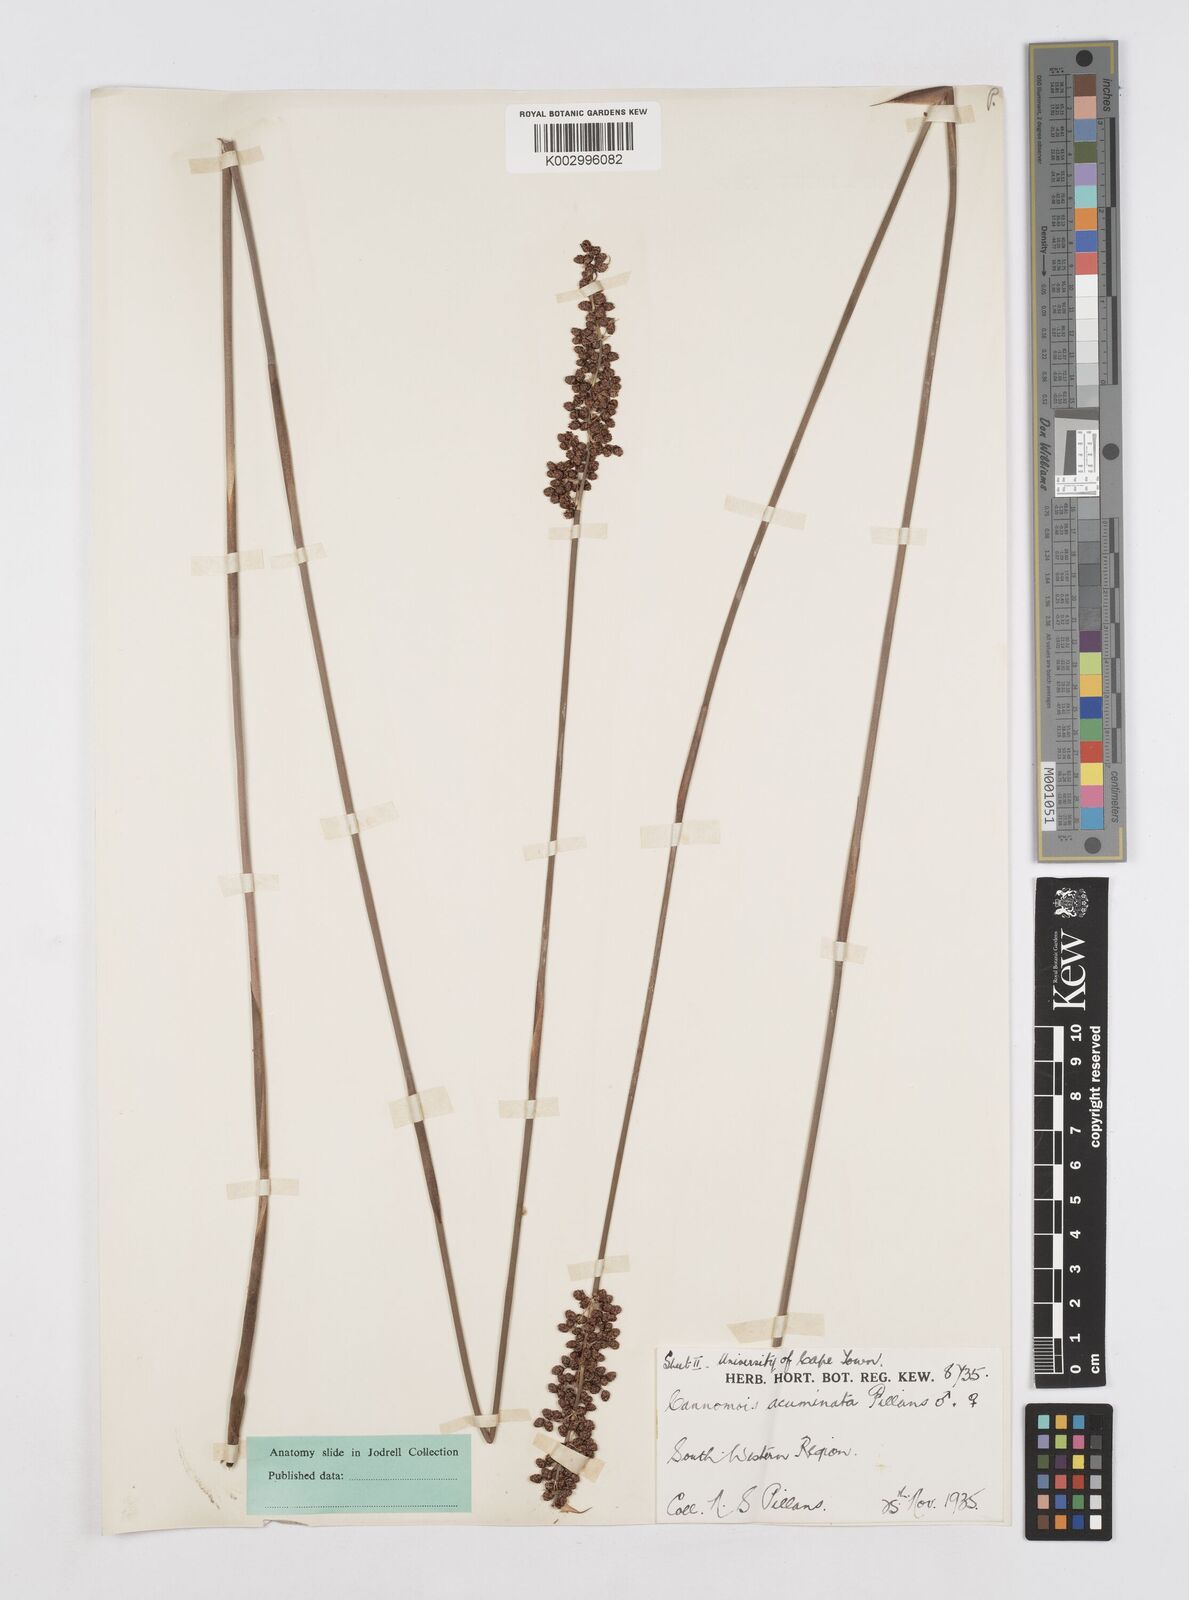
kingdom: Plantae
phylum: Tracheophyta
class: Liliopsida
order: Poales
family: Restionaceae
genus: Cannomois
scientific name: Cannomois parviflora
